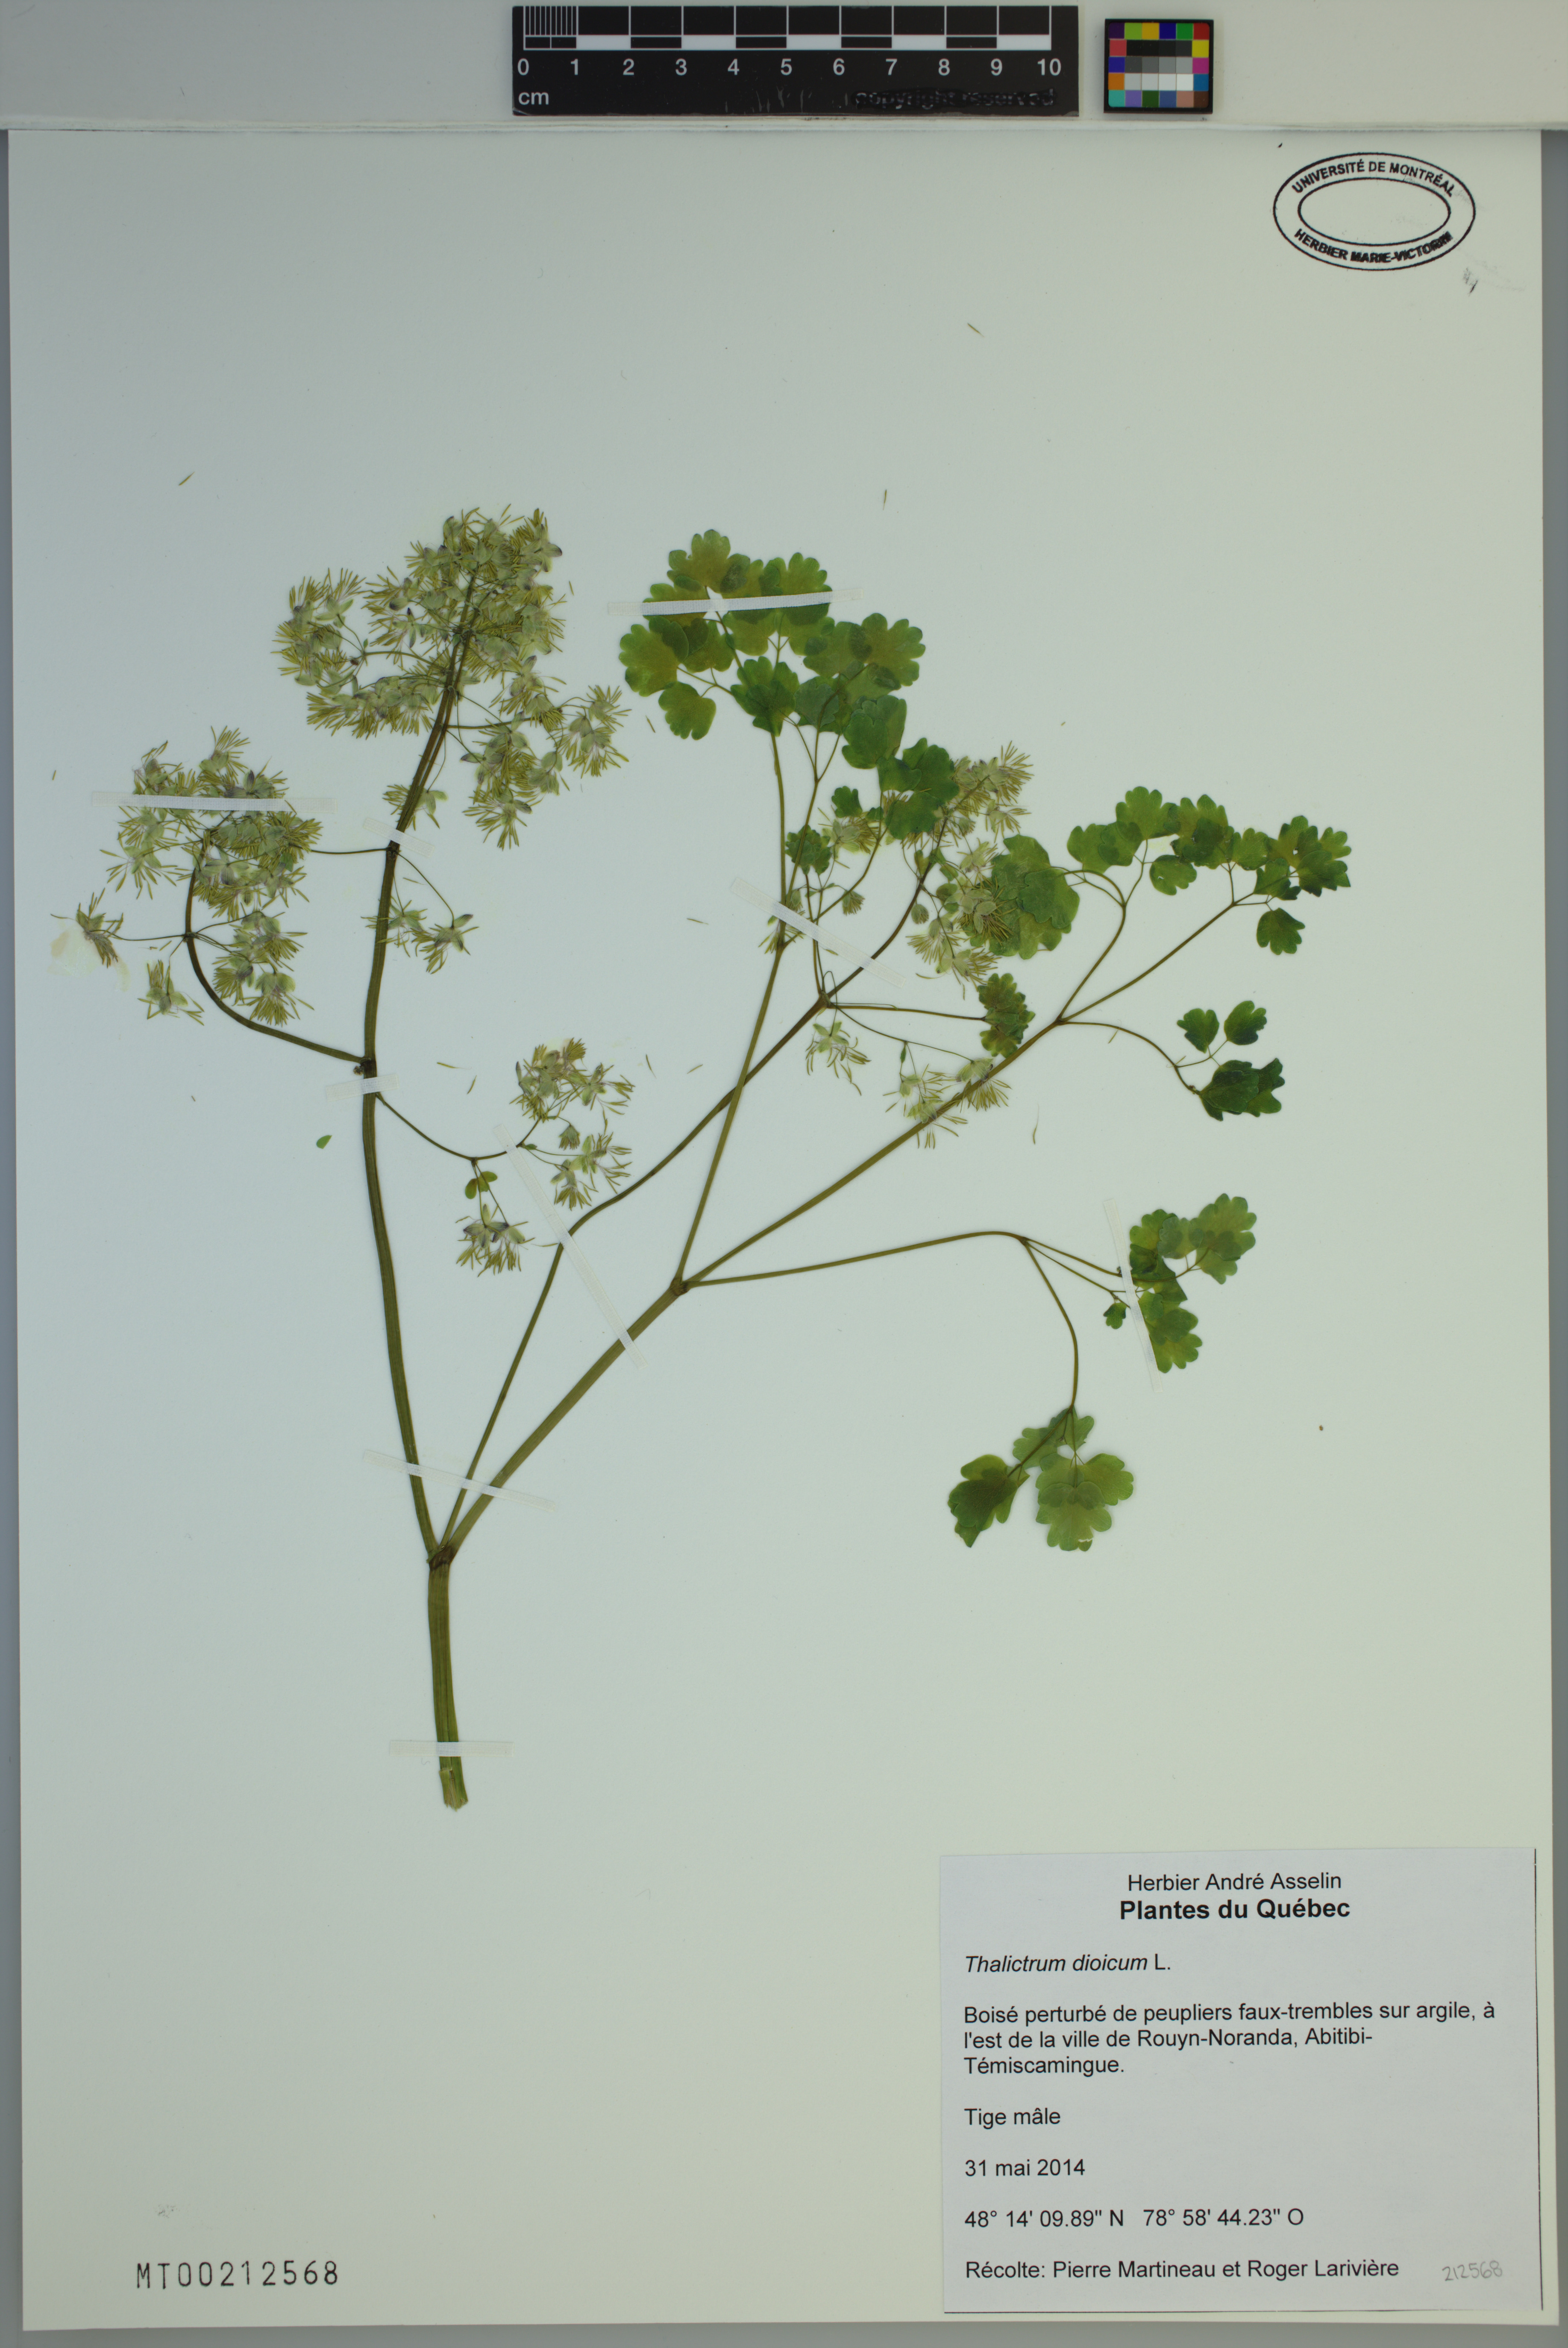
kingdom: Plantae
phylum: Tracheophyta
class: Magnoliopsida
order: Ranunculales
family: Ranunculaceae
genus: Thalictrum
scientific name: Thalictrum dioicum
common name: Early meadow-rue
